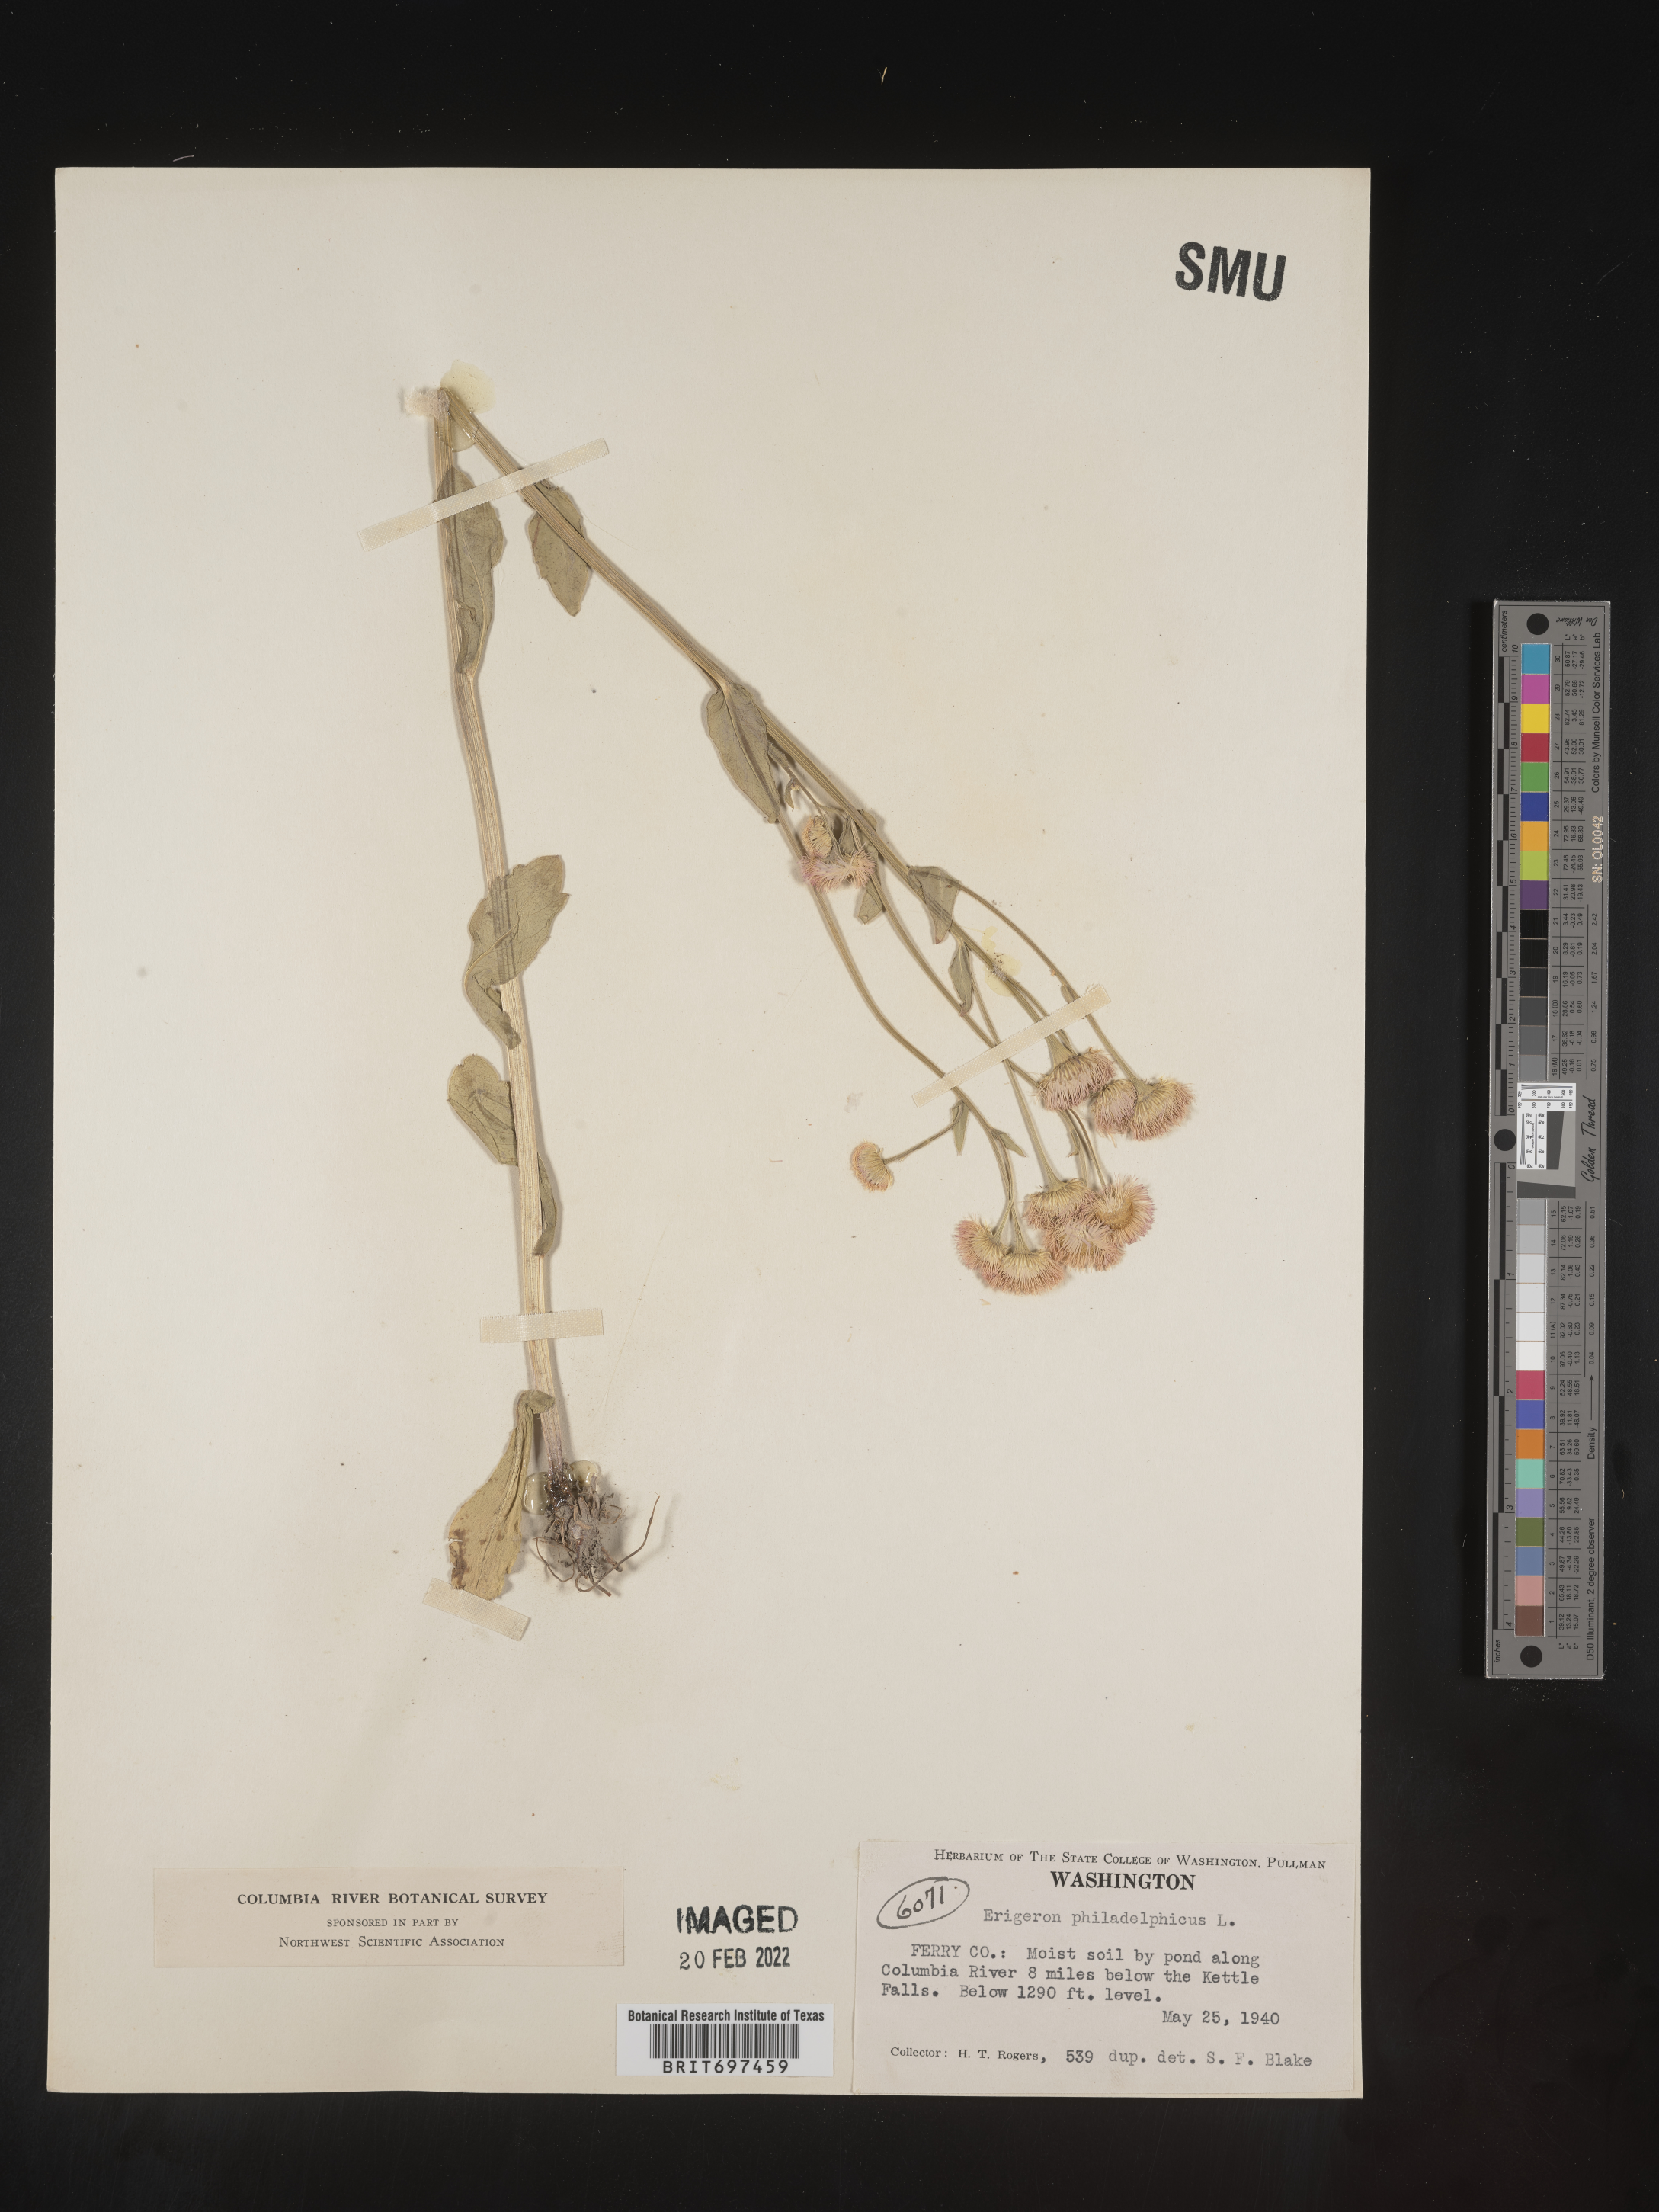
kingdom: Plantae
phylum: Tracheophyta
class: Magnoliopsida
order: Asterales
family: Asteraceae
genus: Erigeron
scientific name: Erigeron philadelphicus
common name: Robin's-plantain
